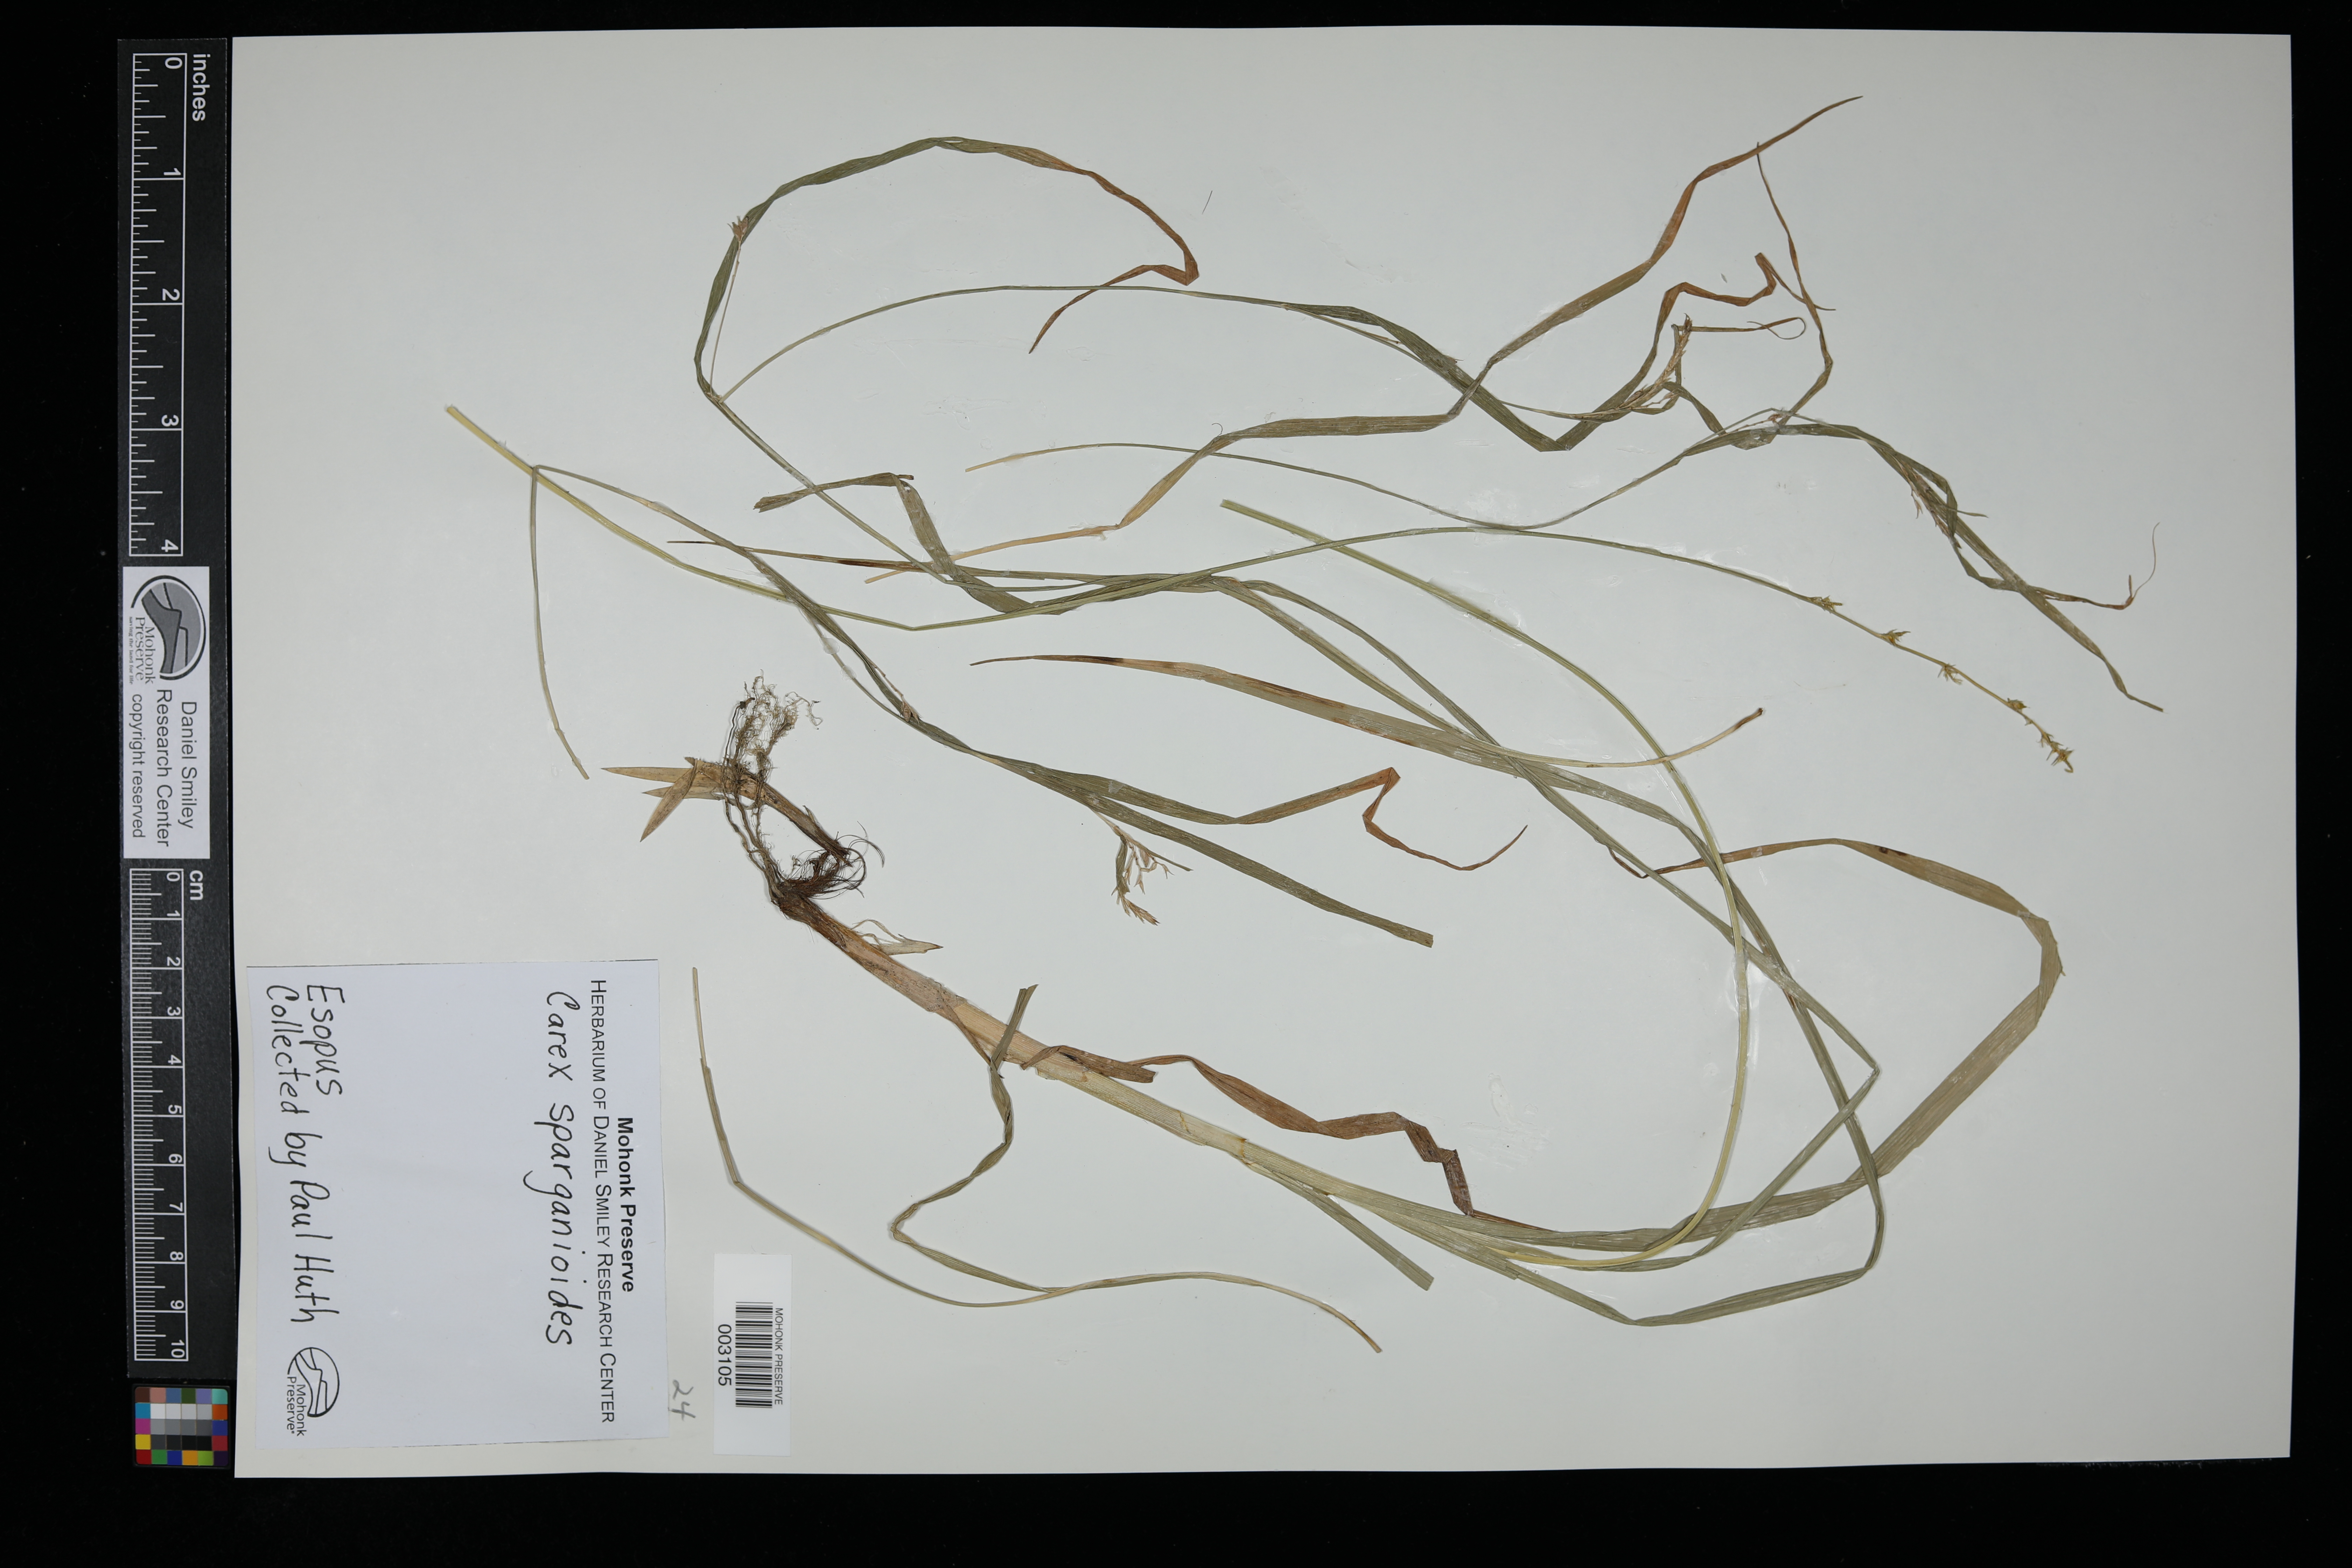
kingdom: Plantae
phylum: Tracheophyta
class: Liliopsida
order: Poales
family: Cyperaceae
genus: Carex
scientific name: Carex sparganioides
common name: Burreed sedge
